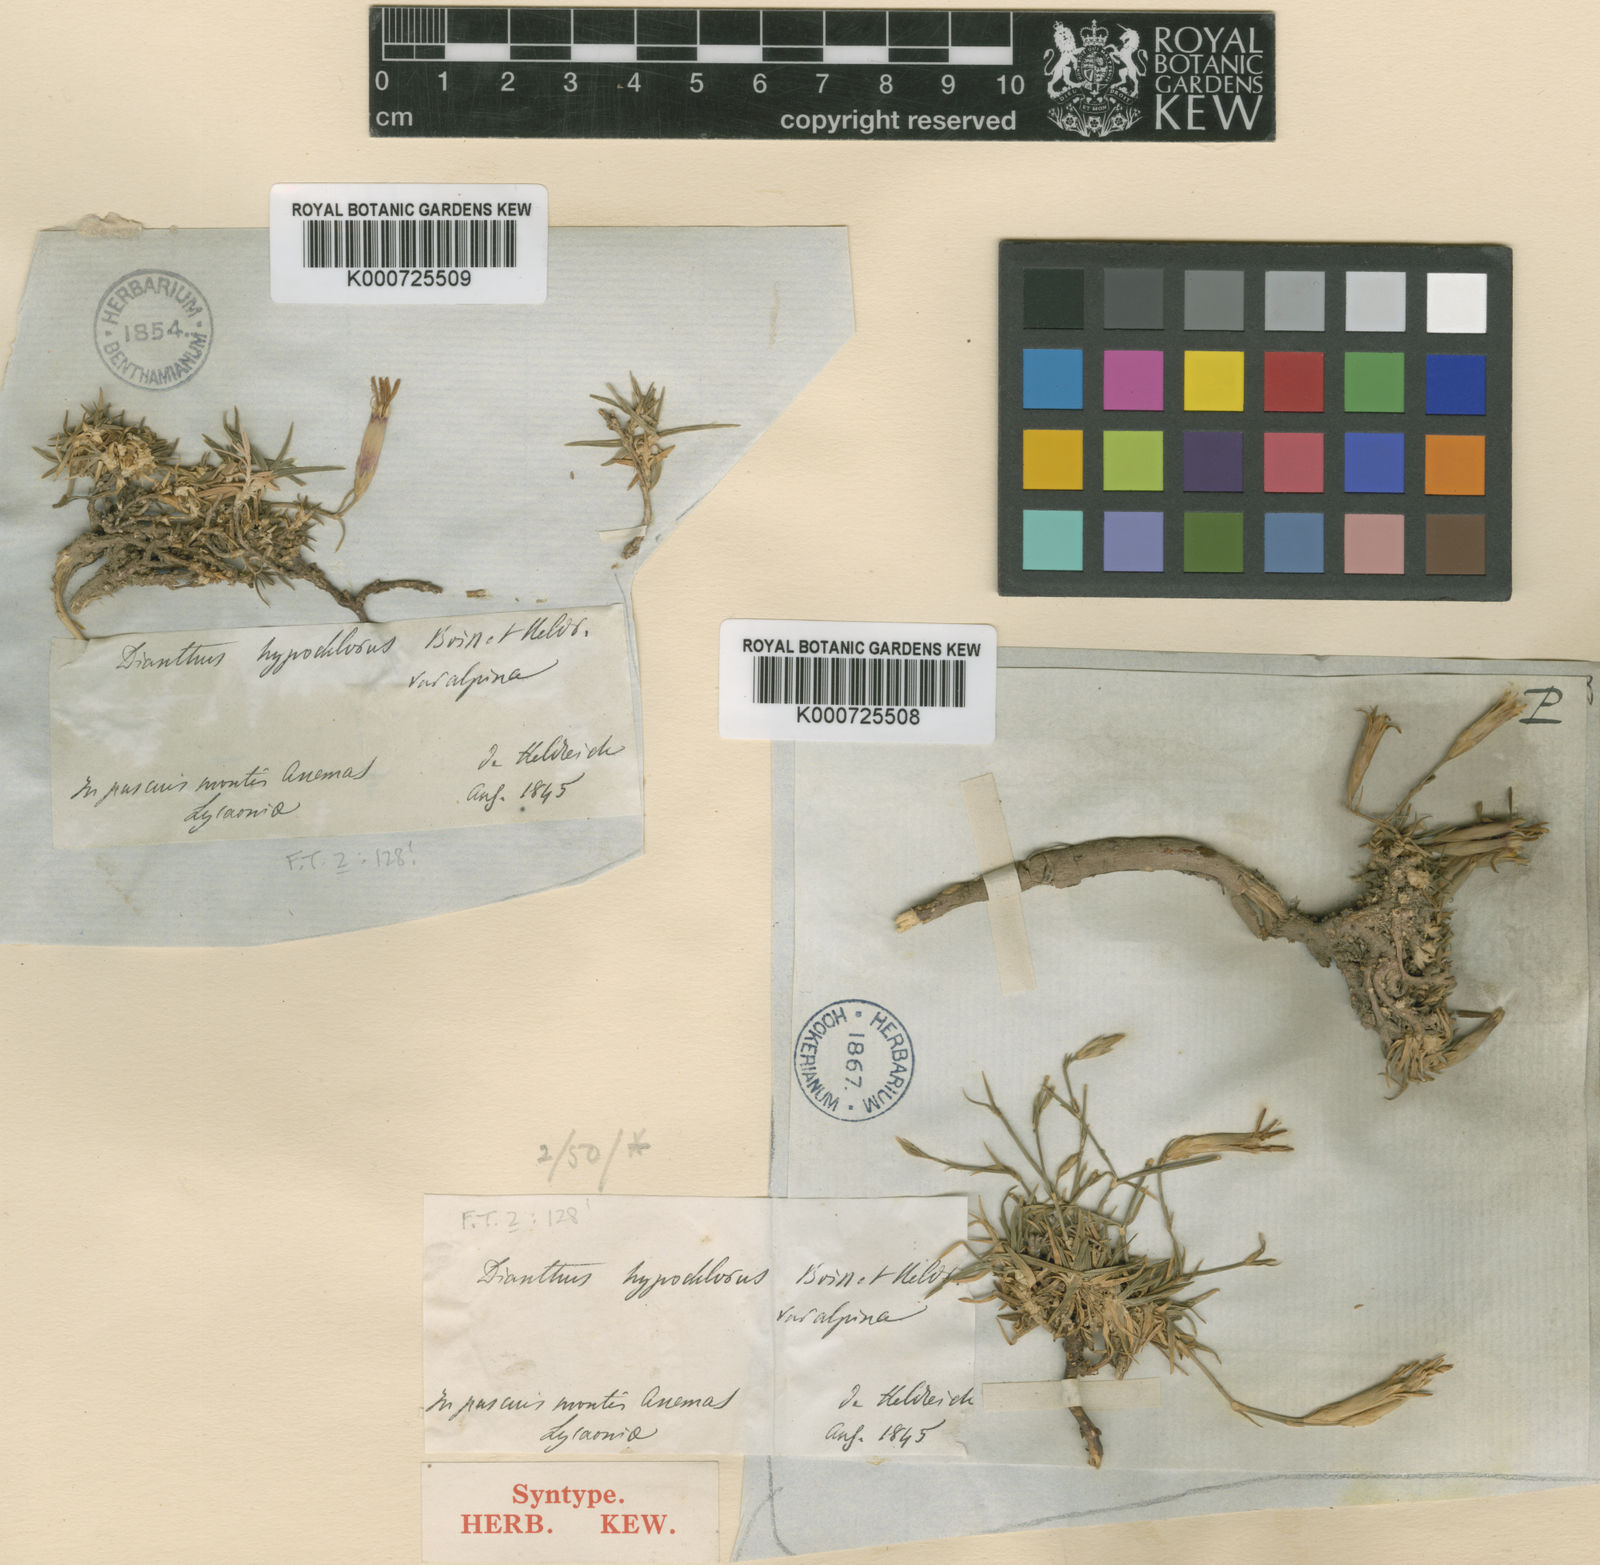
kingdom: Plantae
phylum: Tracheophyta
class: Magnoliopsida
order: Caryophyllales
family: Caryophyllaceae
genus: Dianthus
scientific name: Dianthus zonatus
